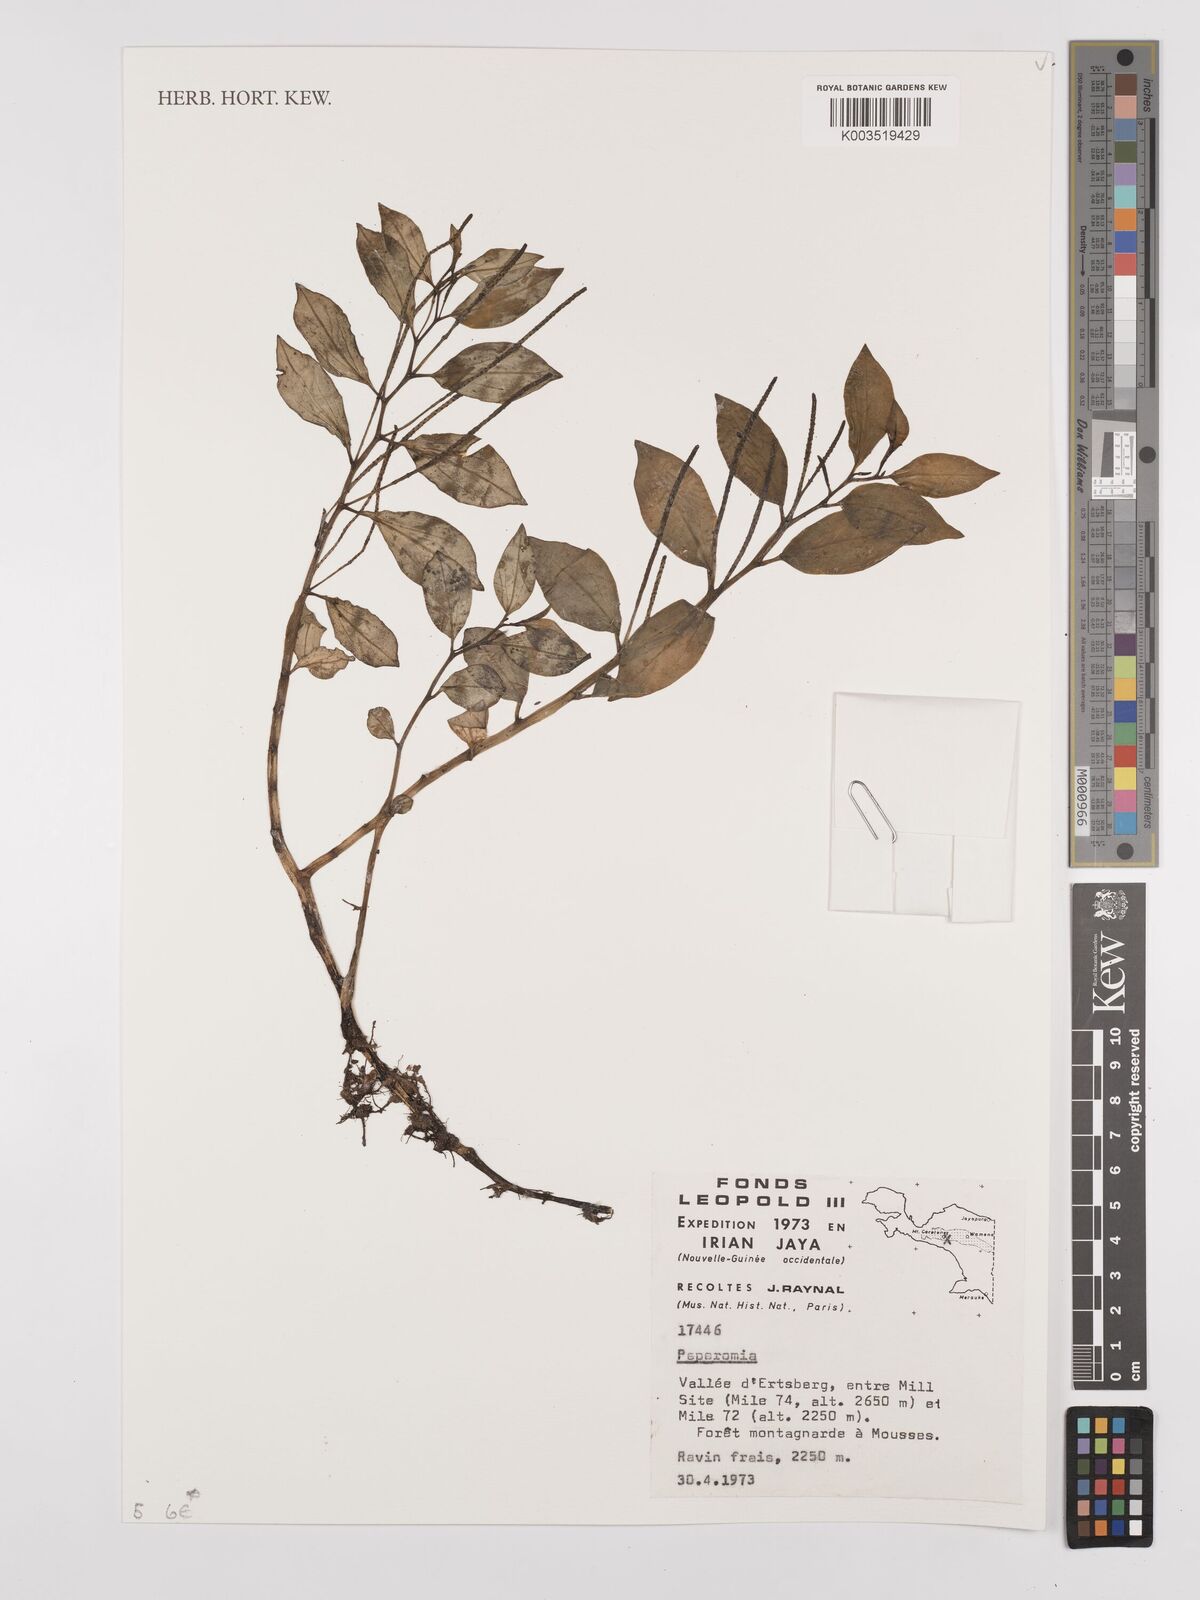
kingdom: Plantae
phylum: Tracheophyta
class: Magnoliopsida
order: Piperales
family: Piperaceae
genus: Peperomia
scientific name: Peperomia
